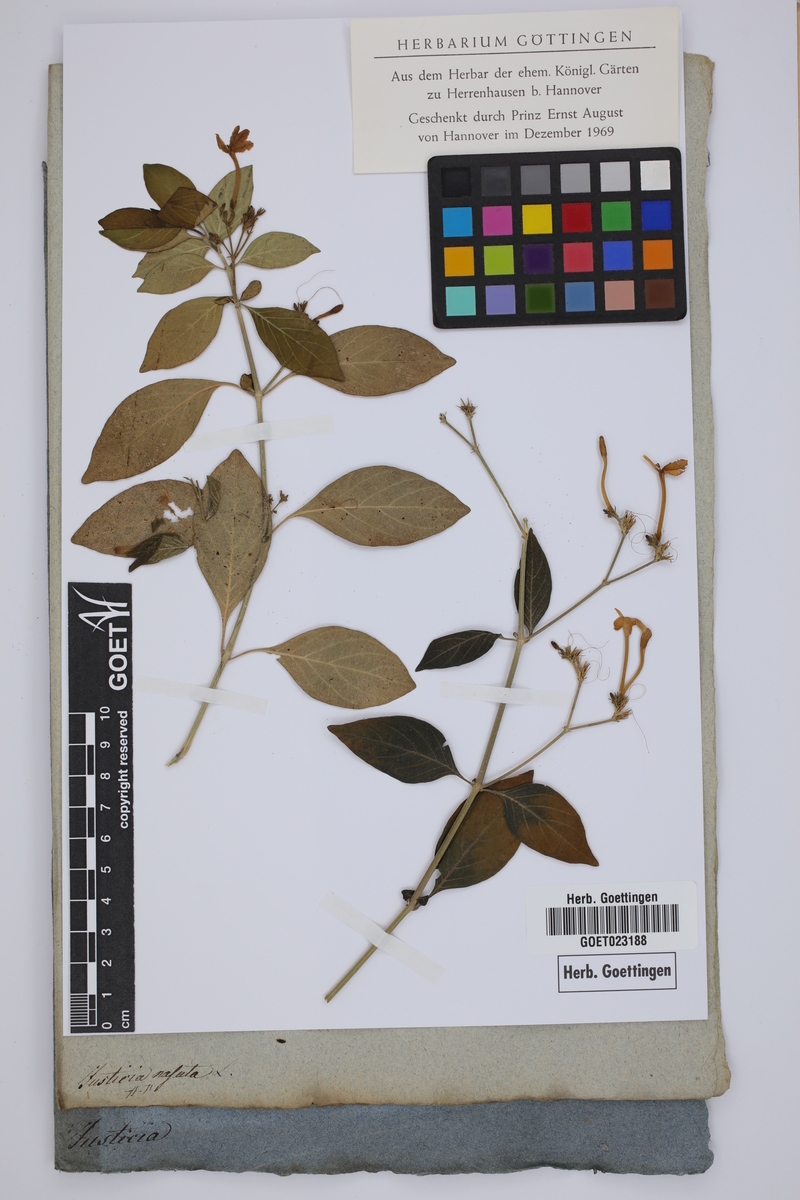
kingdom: Plantae
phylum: Tracheophyta
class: Magnoliopsida
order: Lamiales
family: Acanthaceae
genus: Rhinacanthus
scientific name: Rhinacanthus nasutus
